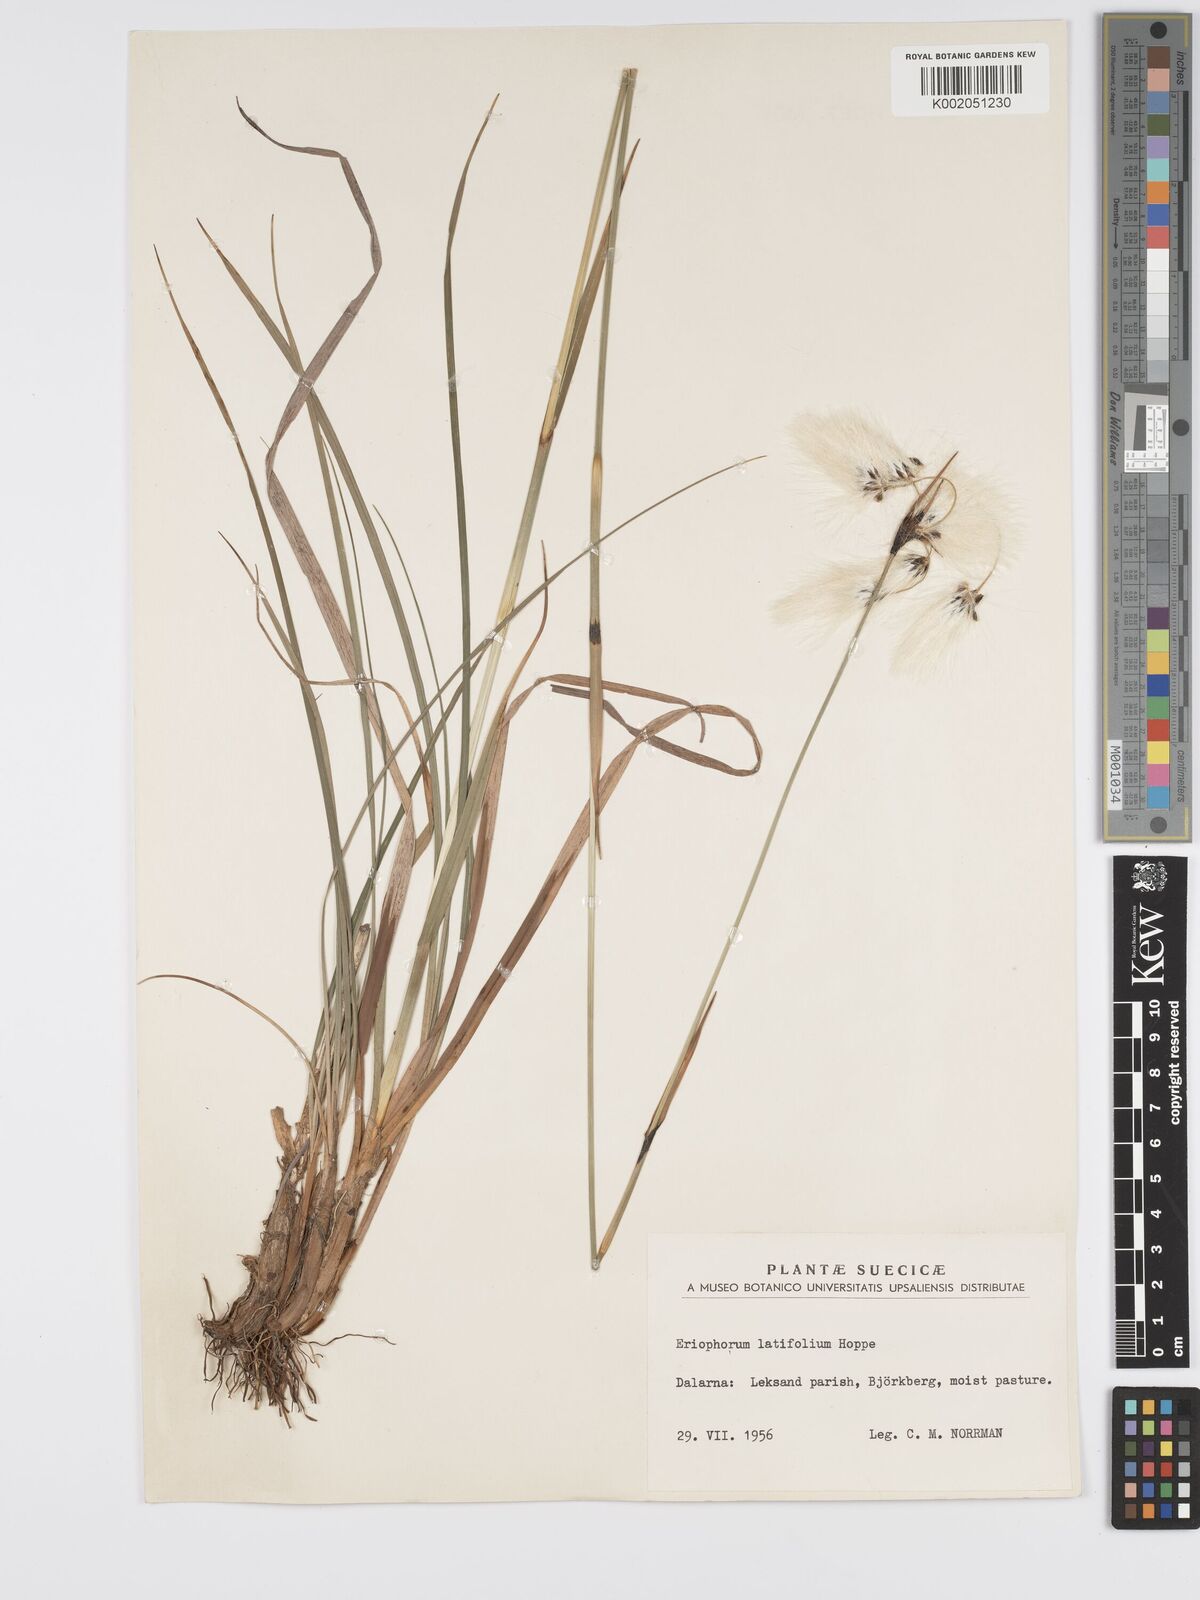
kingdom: Plantae
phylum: Tracheophyta
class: Liliopsida
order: Poales
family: Cyperaceae
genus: Eriophorum
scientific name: Eriophorum latifolium
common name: Broad-leaved cottongrass
